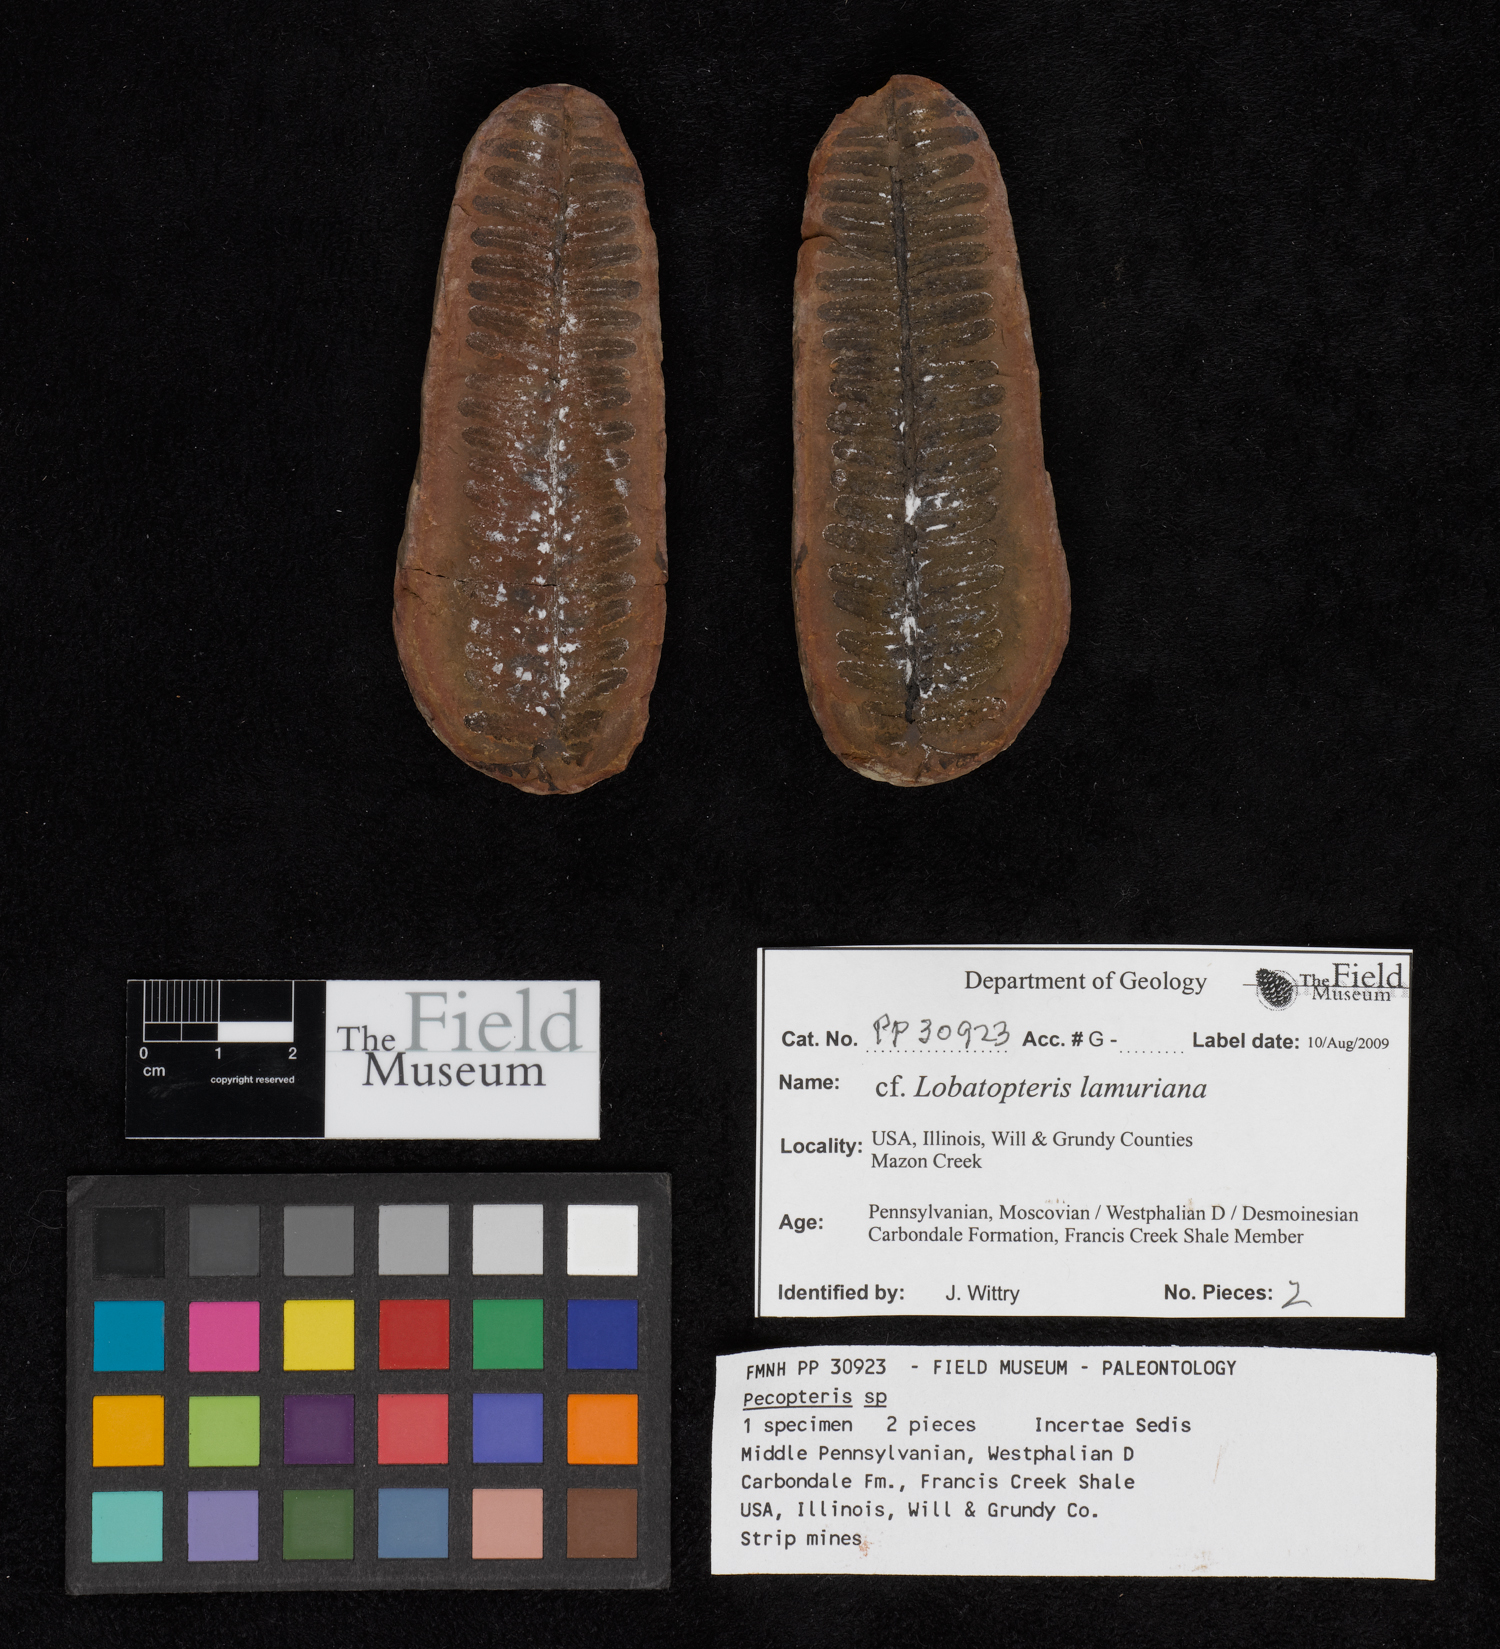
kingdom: Plantae
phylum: Tracheophyta
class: Polypodiopsida
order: Marattiales
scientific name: Marattiales
